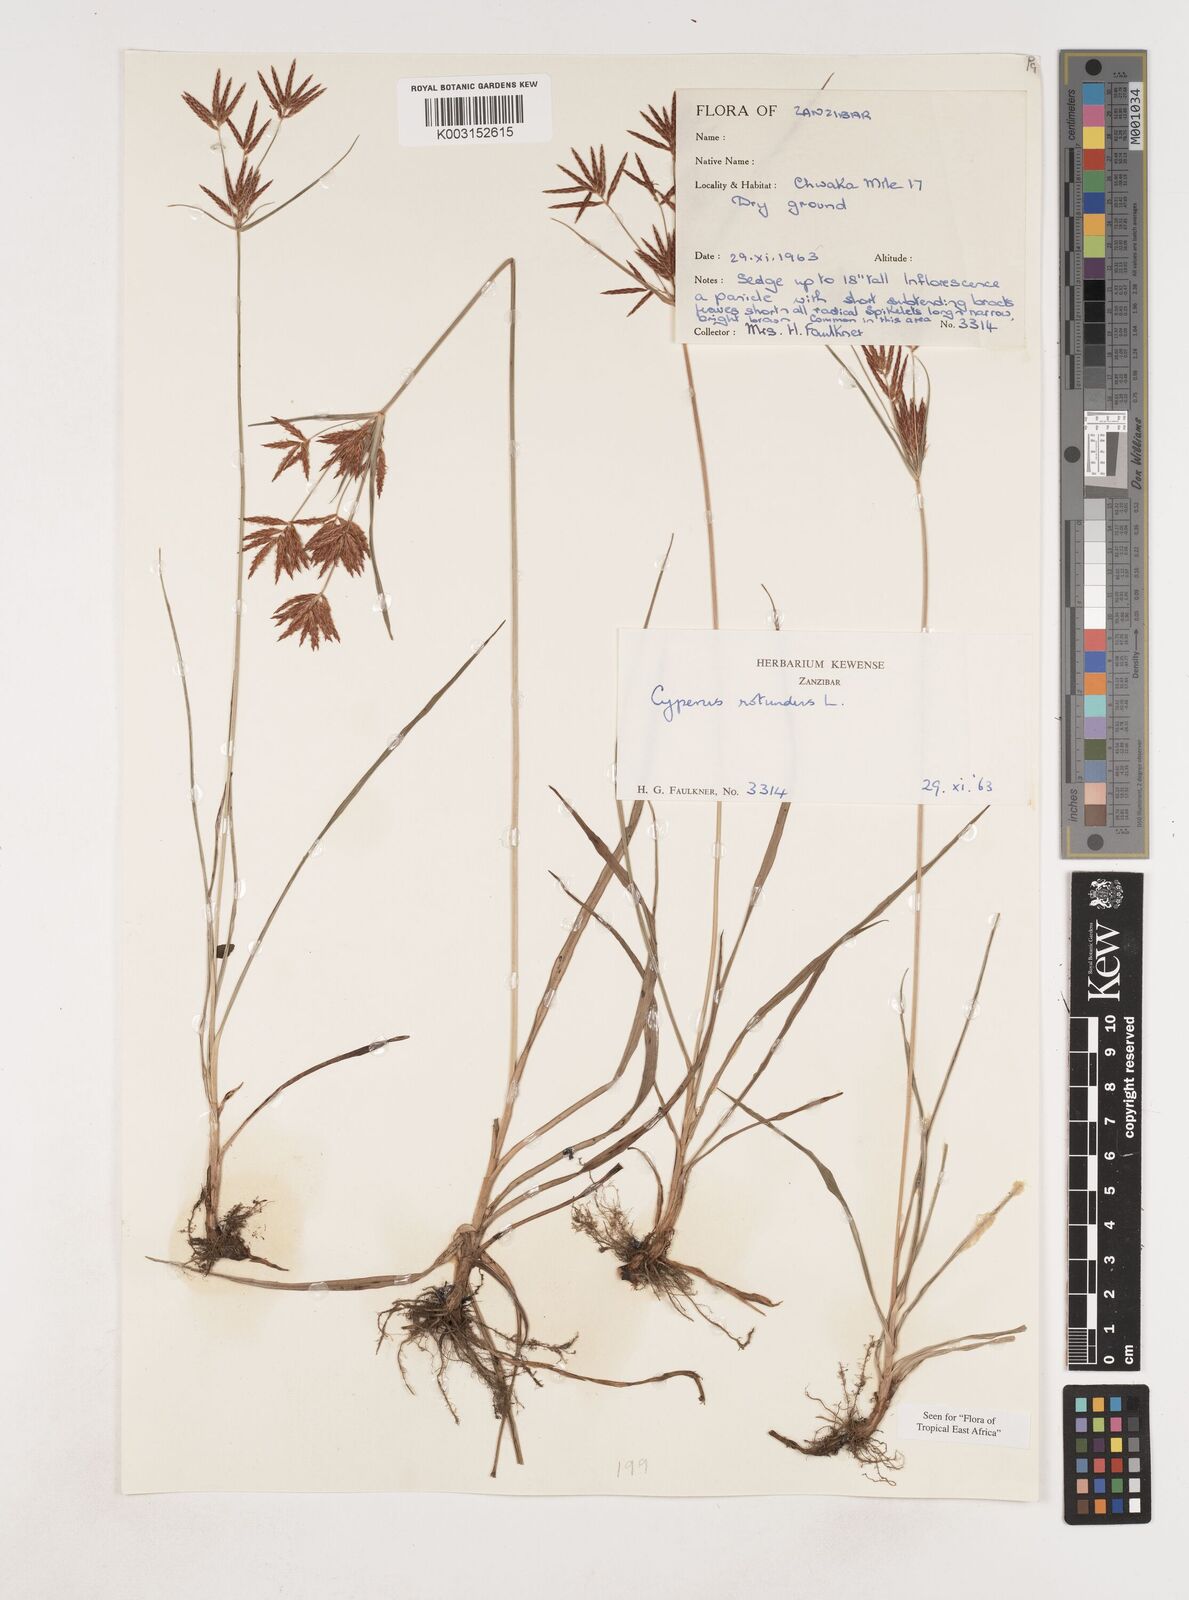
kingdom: Plantae
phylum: Tracheophyta
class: Liliopsida
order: Poales
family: Cyperaceae
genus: Cyperus
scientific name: Cyperus rotundus
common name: Nutgrass
